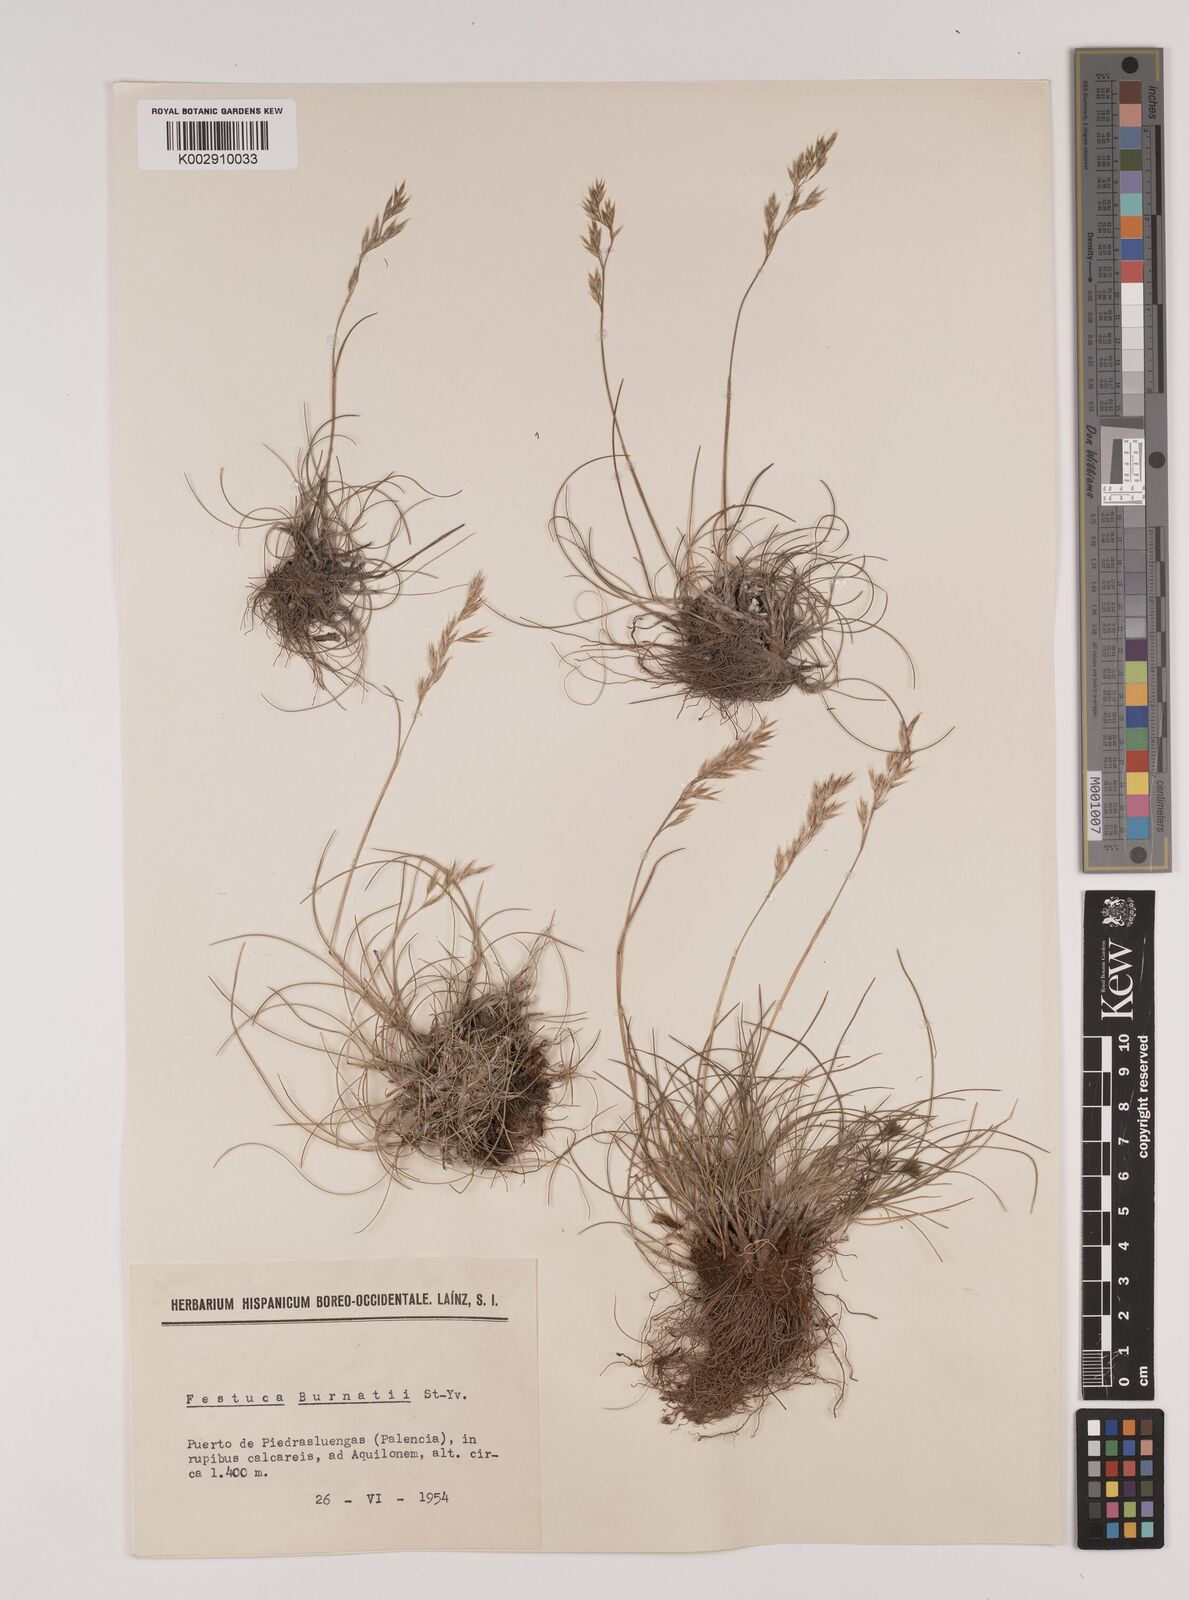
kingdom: Plantae
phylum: Tracheophyta
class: Liliopsida
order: Poales
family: Poaceae
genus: Festuca
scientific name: Festuca burnatii
